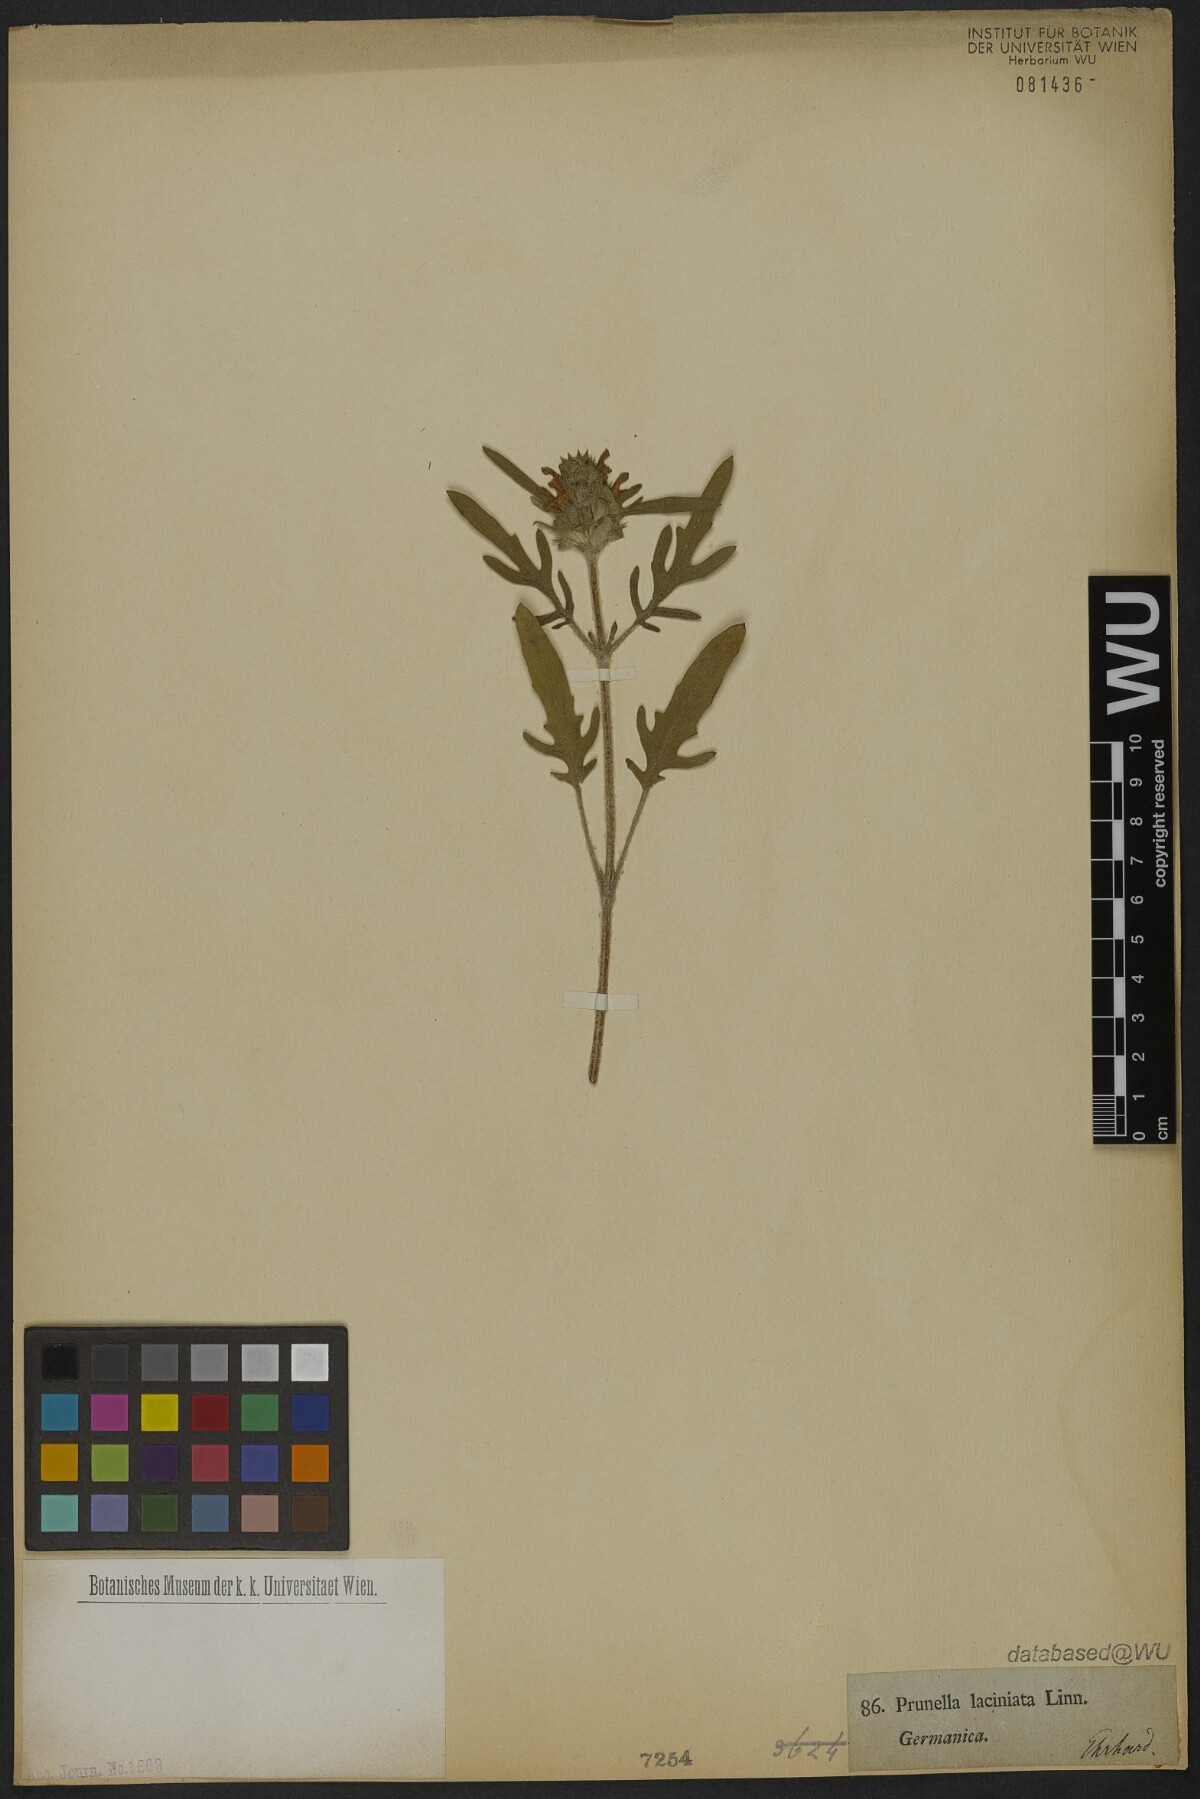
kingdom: Plantae
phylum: Tracheophyta
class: Magnoliopsida
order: Lamiales
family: Lamiaceae
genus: Prunella
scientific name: Prunella laciniata
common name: Cut-leaved selfheal
